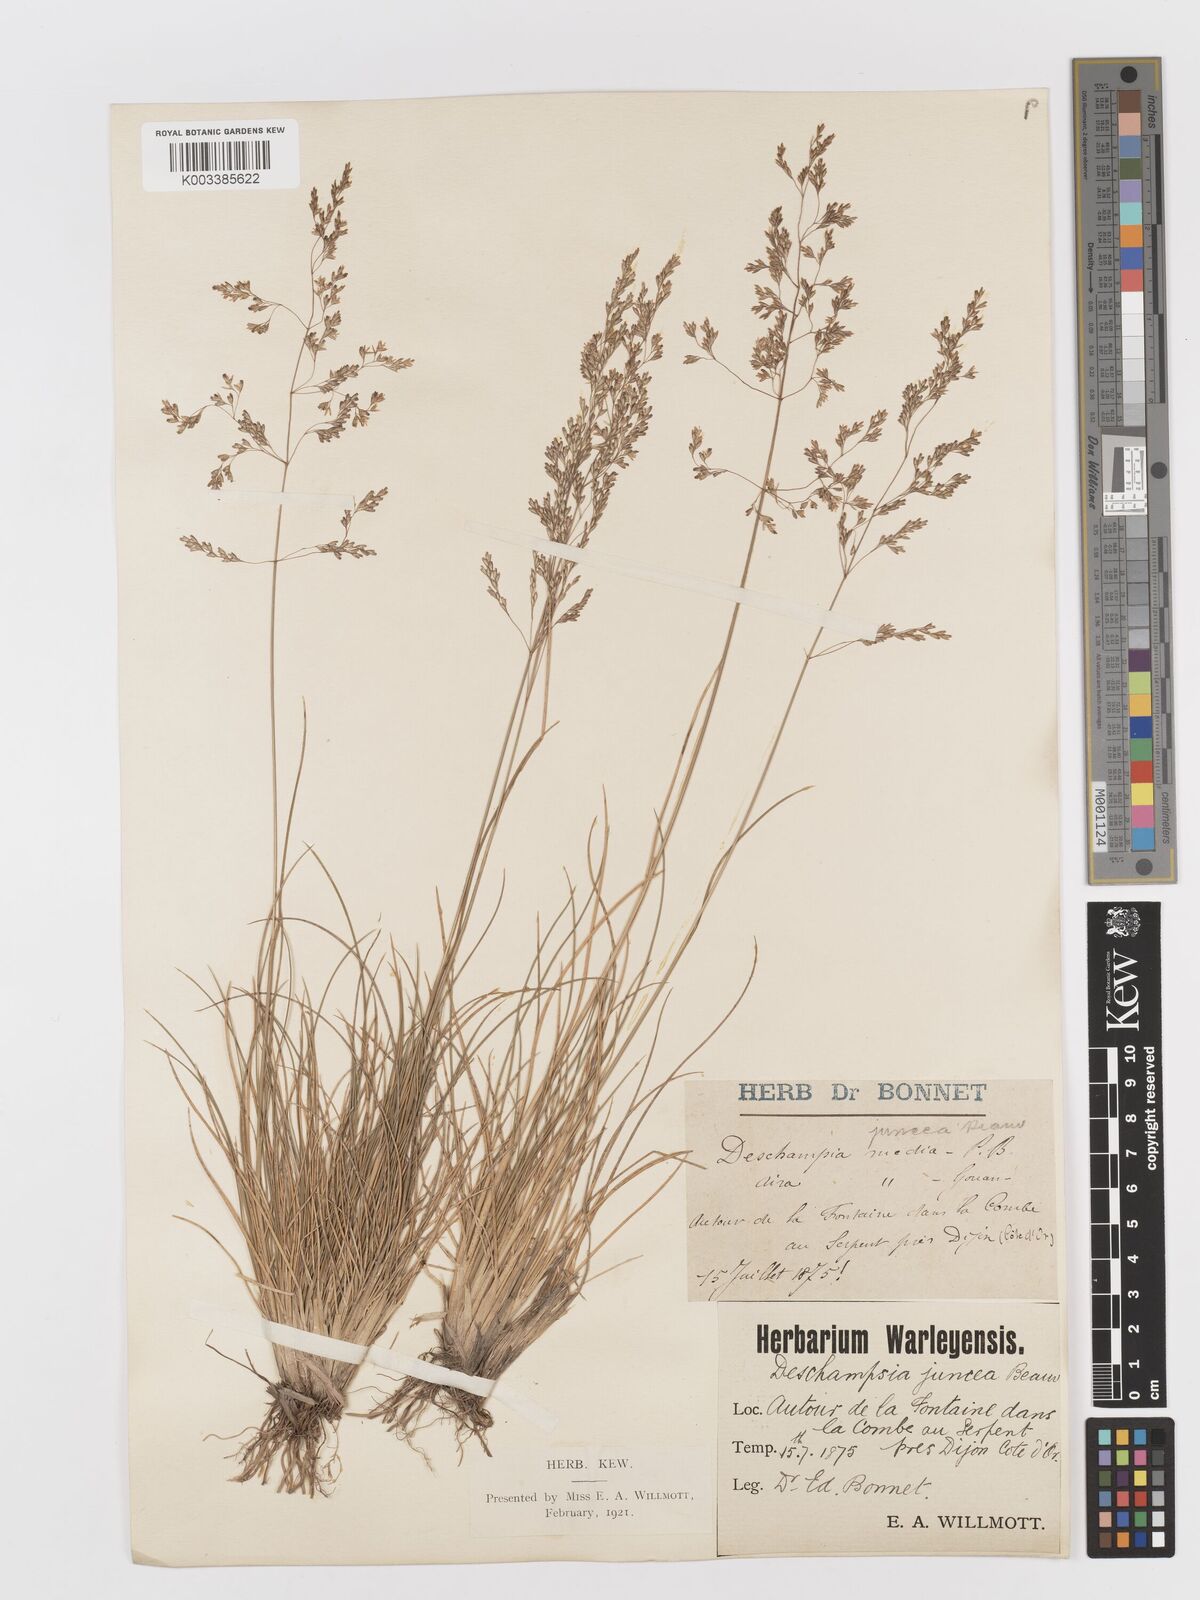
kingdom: Plantae
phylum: Tracheophyta
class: Liliopsida
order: Poales
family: Poaceae
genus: Deschampsia
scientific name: Deschampsia media
